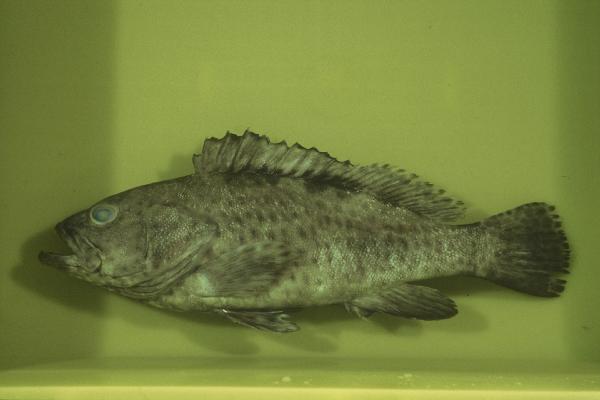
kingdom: Animalia
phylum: Chordata
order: Perciformes
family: Serranidae
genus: Epinephelus
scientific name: Epinephelus bilobatus
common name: Twinspot grouper
